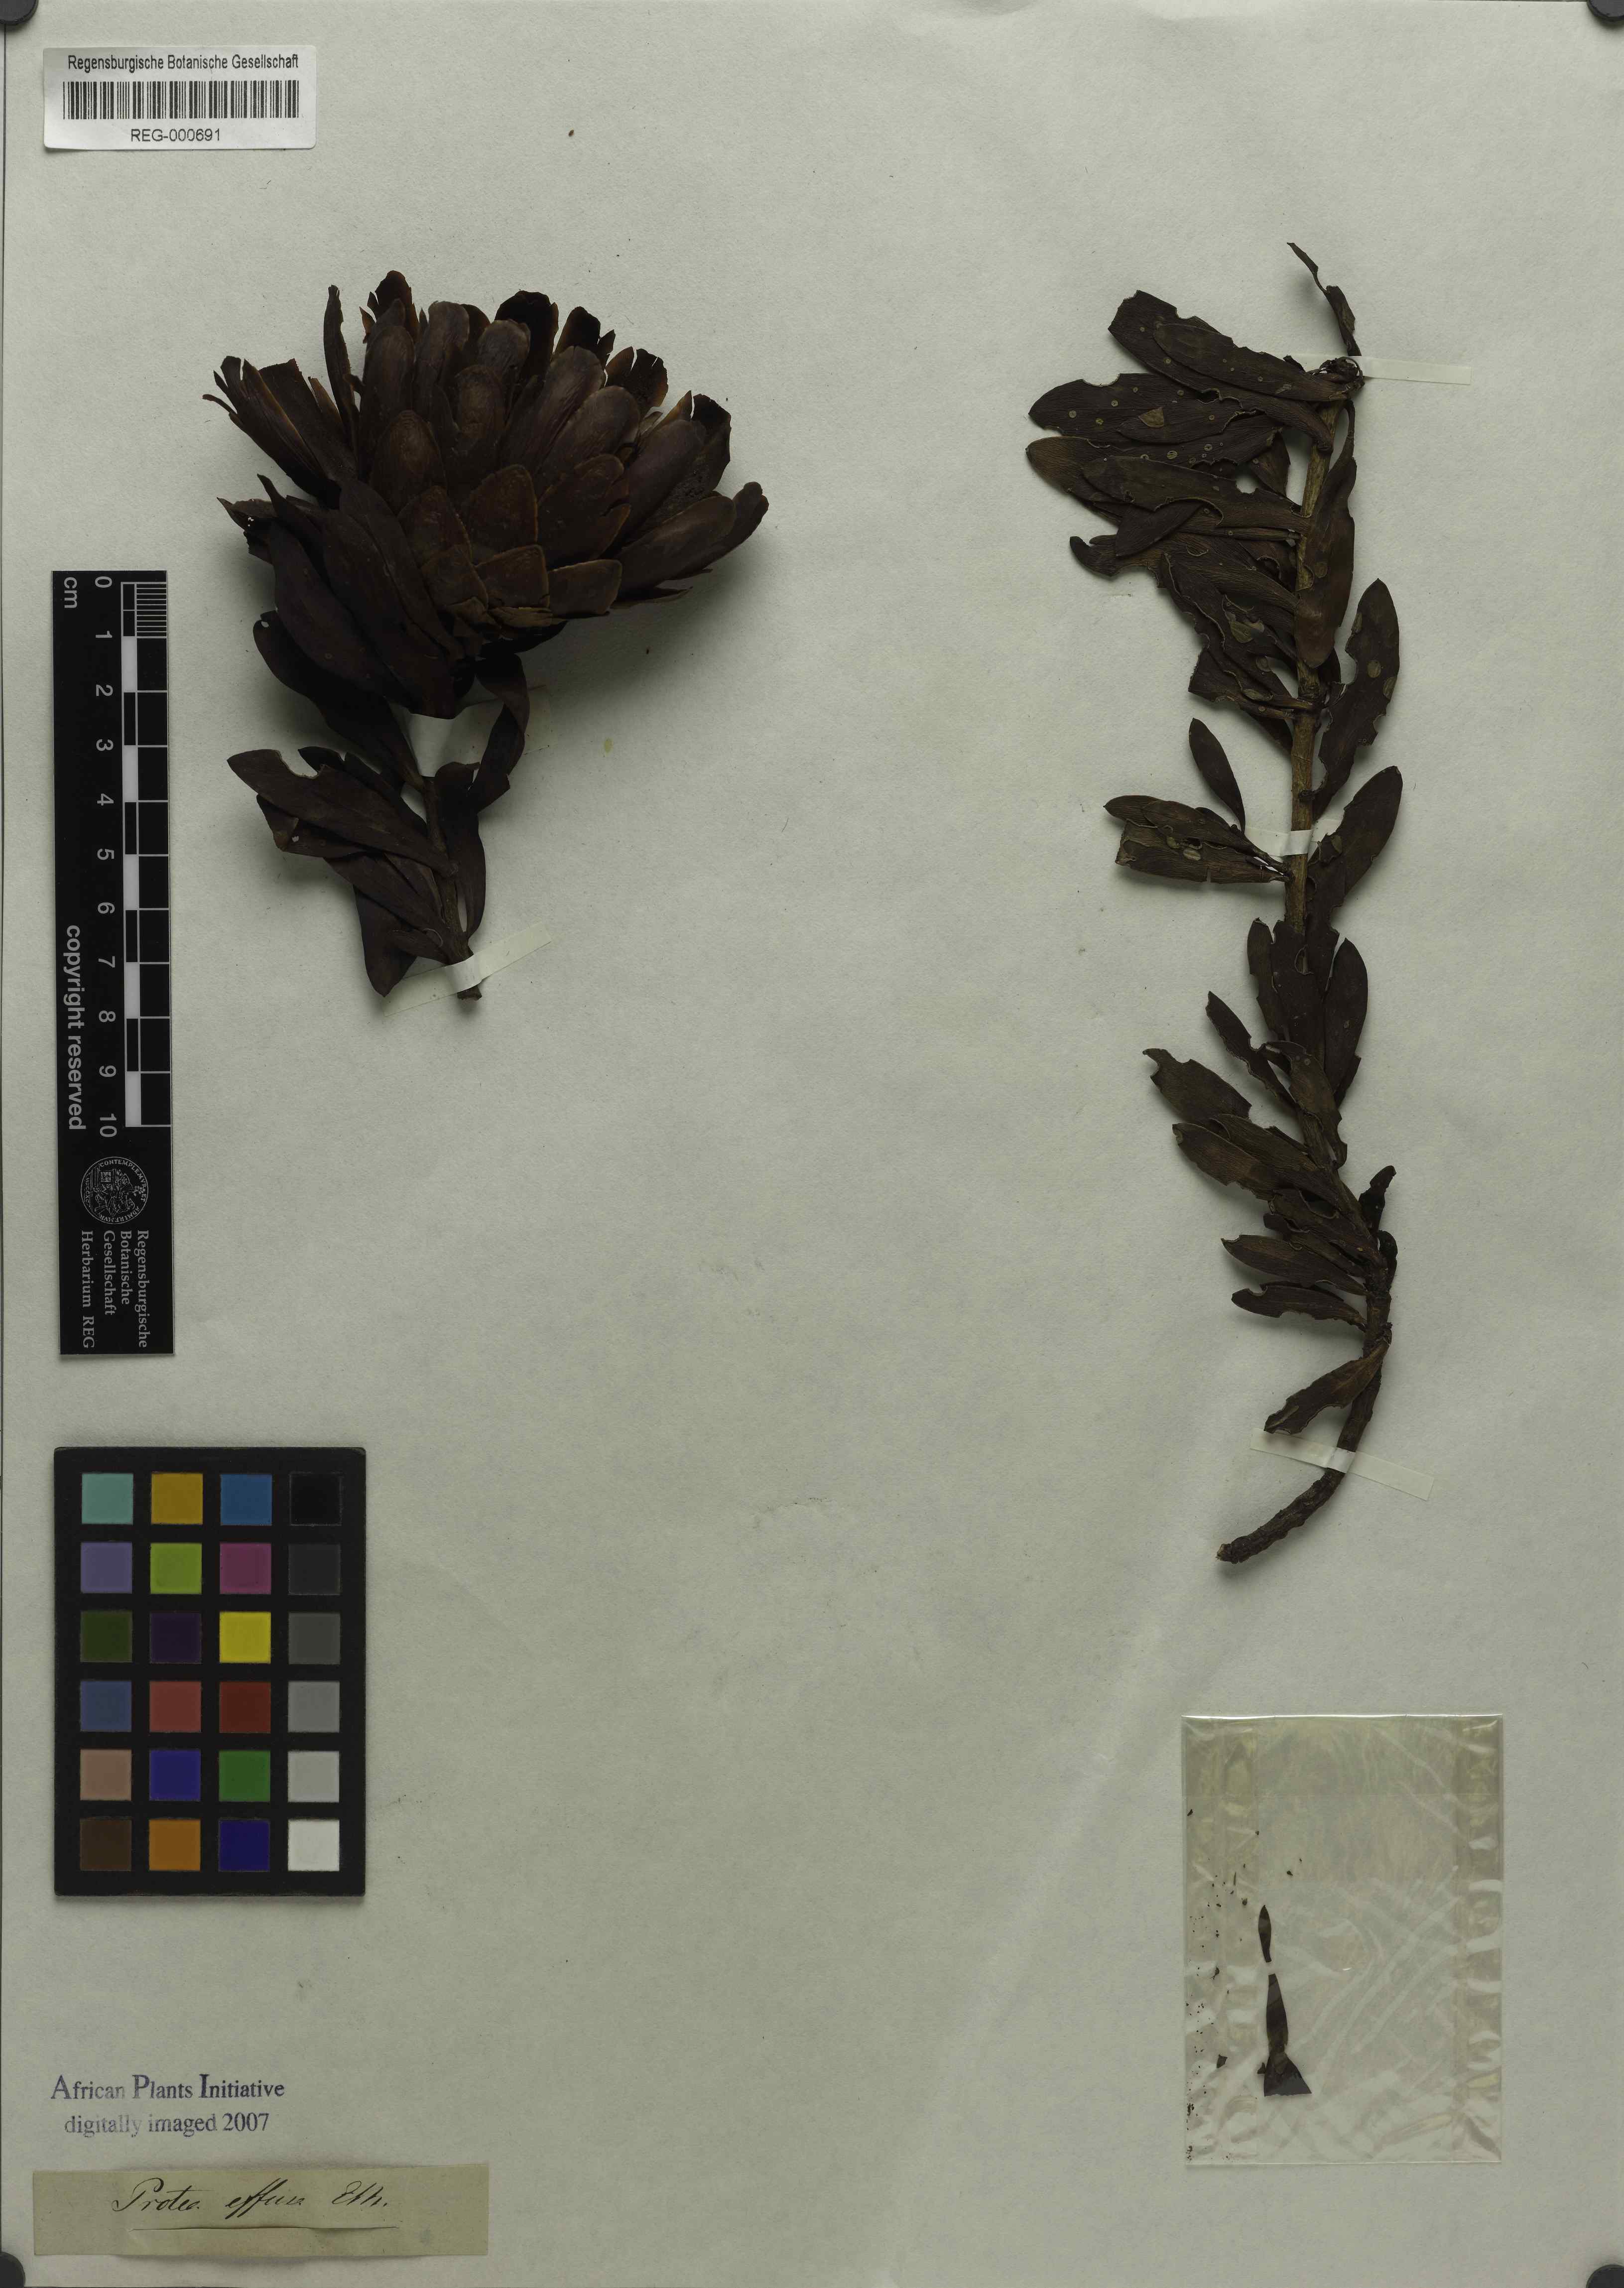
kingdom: Plantae
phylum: Tracheophyta
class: Magnoliopsida
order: Proteales
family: Proteaceae
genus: Protea
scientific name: Protea effusa
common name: Scarlet sugarbush
